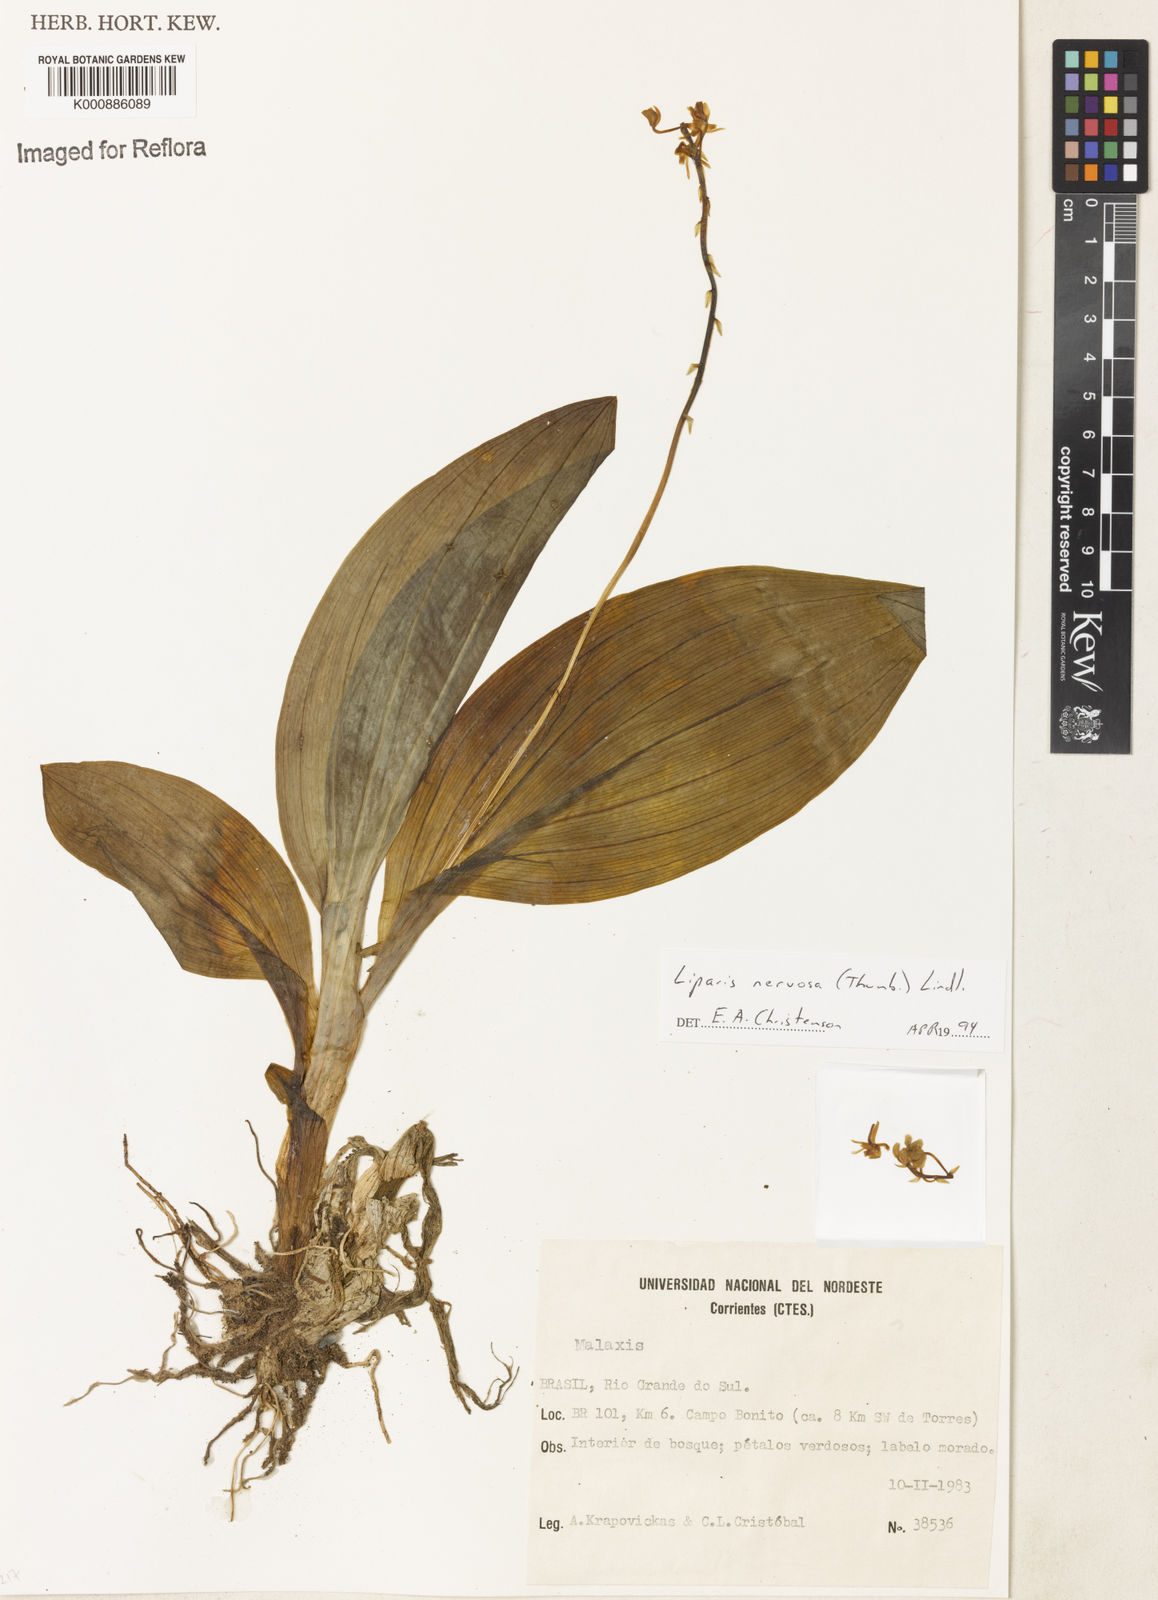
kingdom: Plantae
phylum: Tracheophyta
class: Liliopsida
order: Asparagales
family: Orchidaceae
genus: Liparis
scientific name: Liparis nervosa
